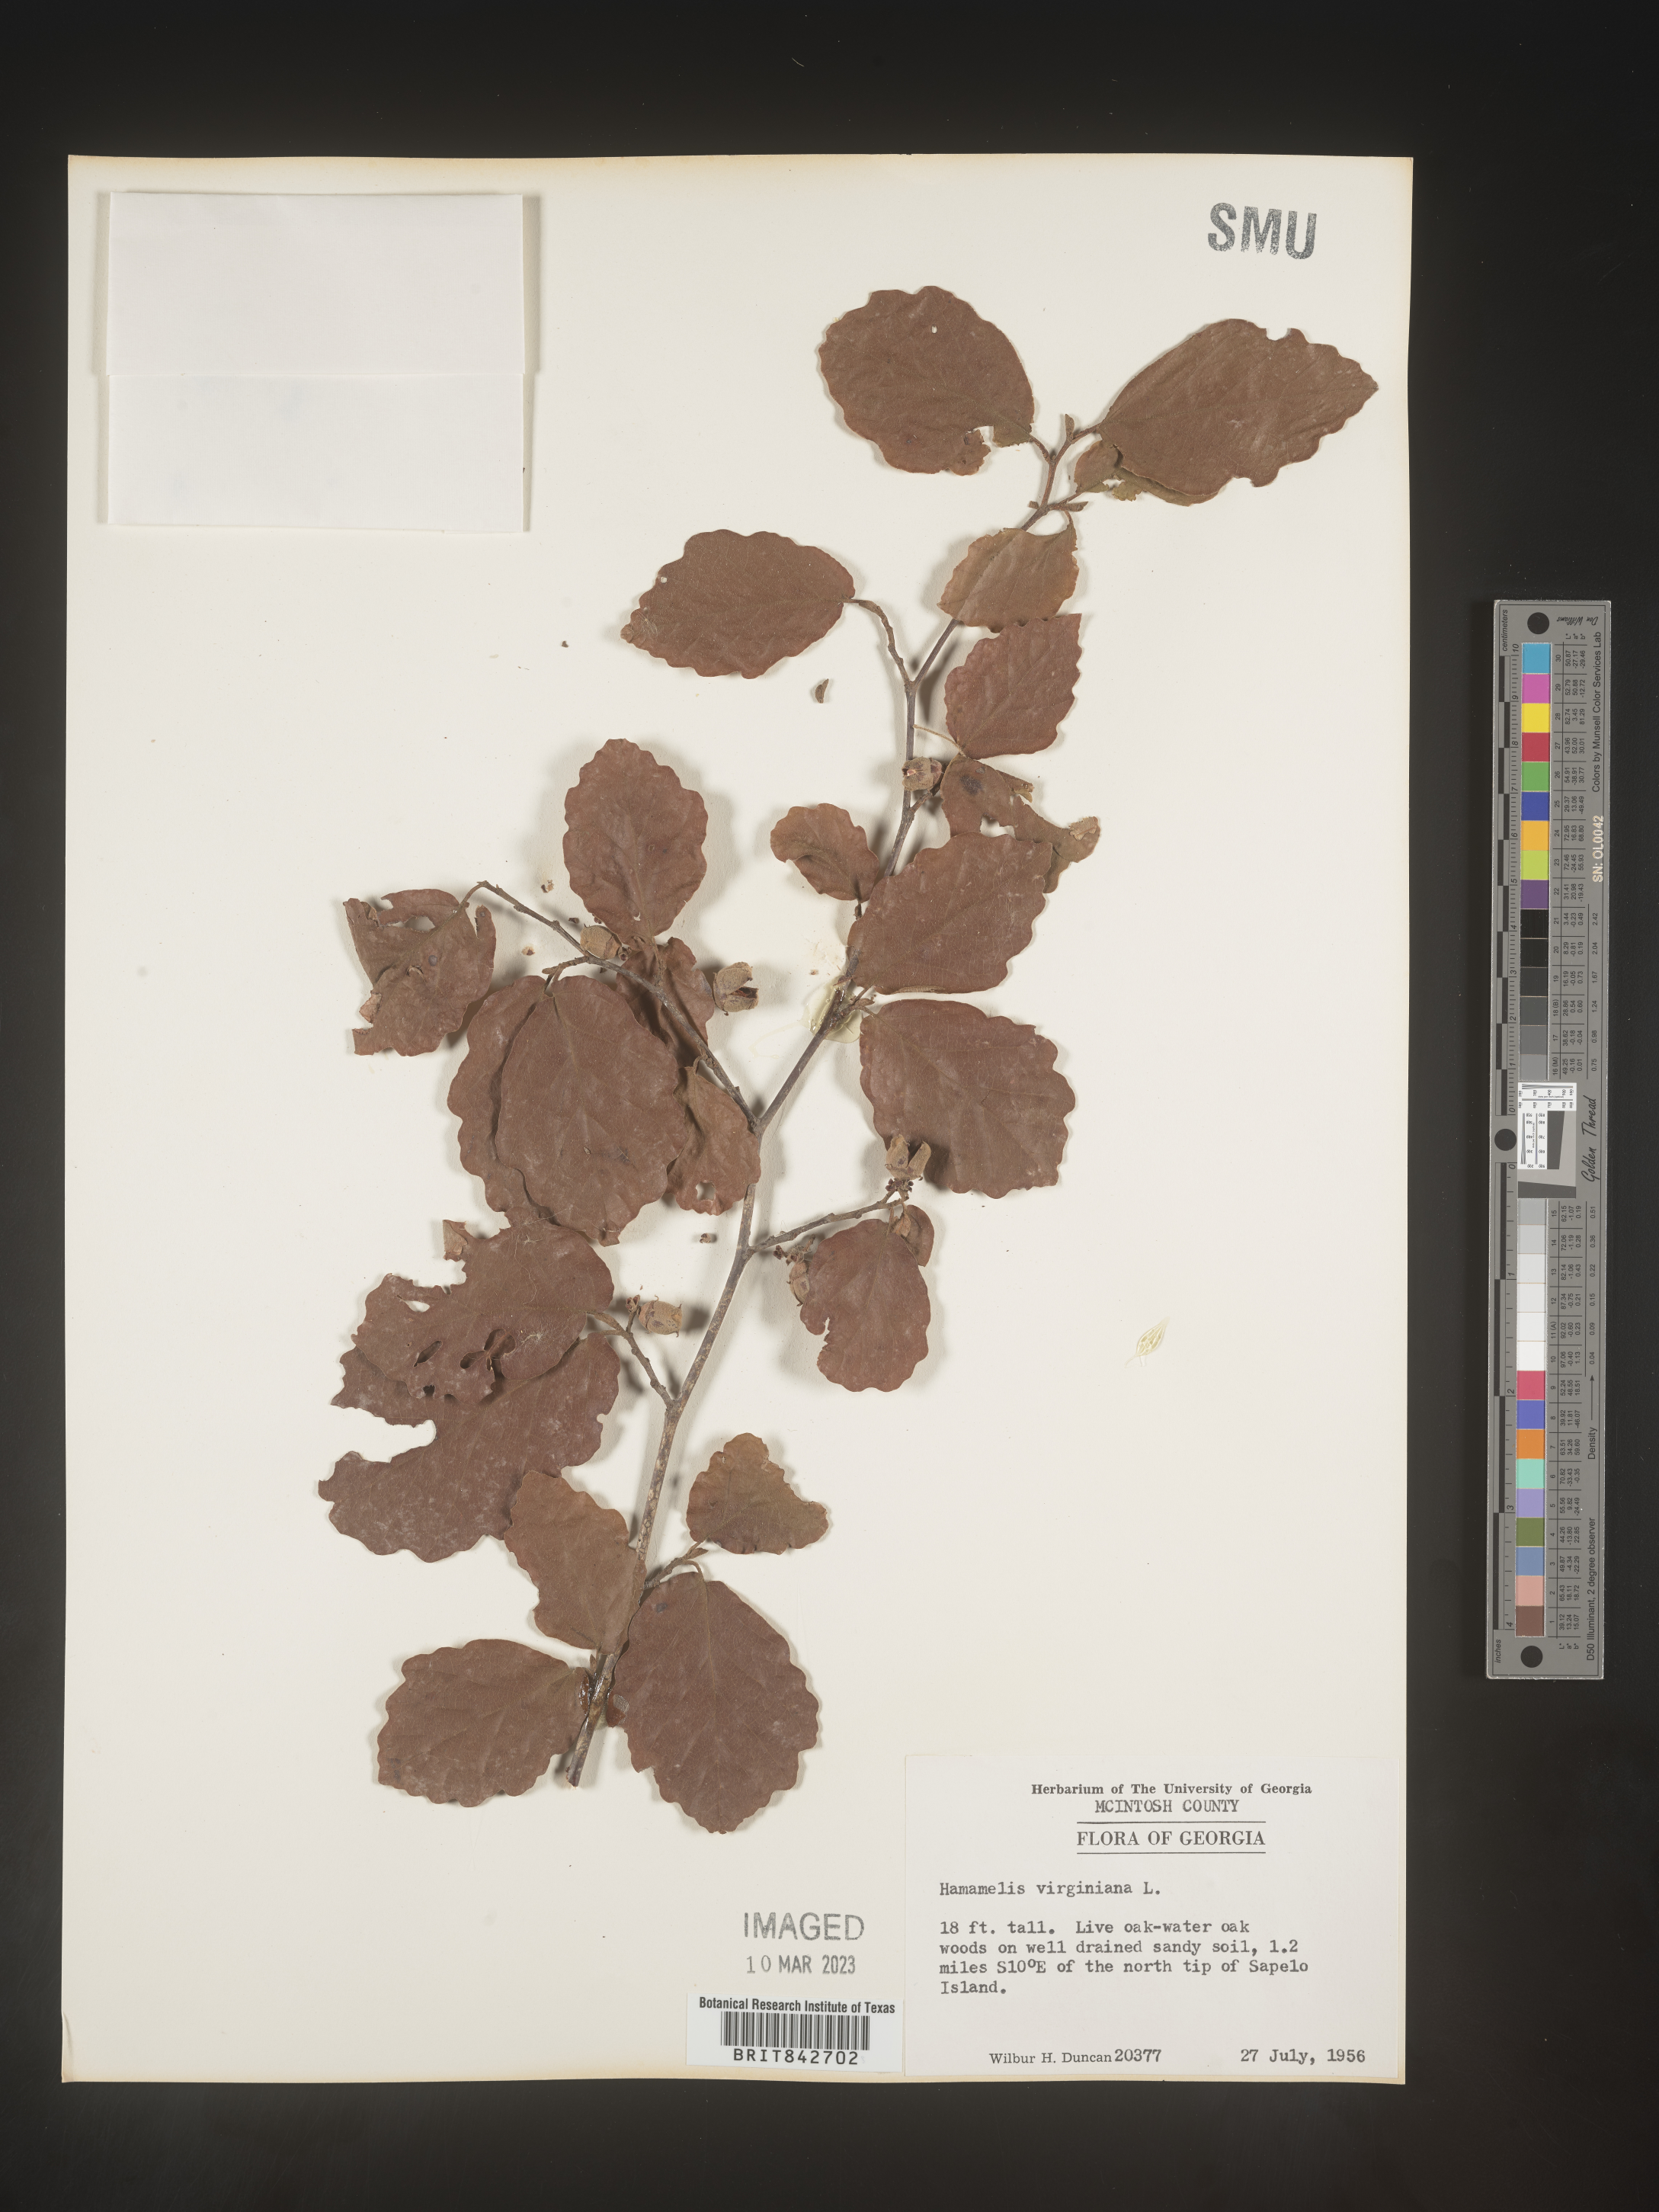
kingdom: Plantae
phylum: Tracheophyta
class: Magnoliopsida
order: Saxifragales
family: Hamamelidaceae
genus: Hamamelis
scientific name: Hamamelis virginiana
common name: Witch-hazel
